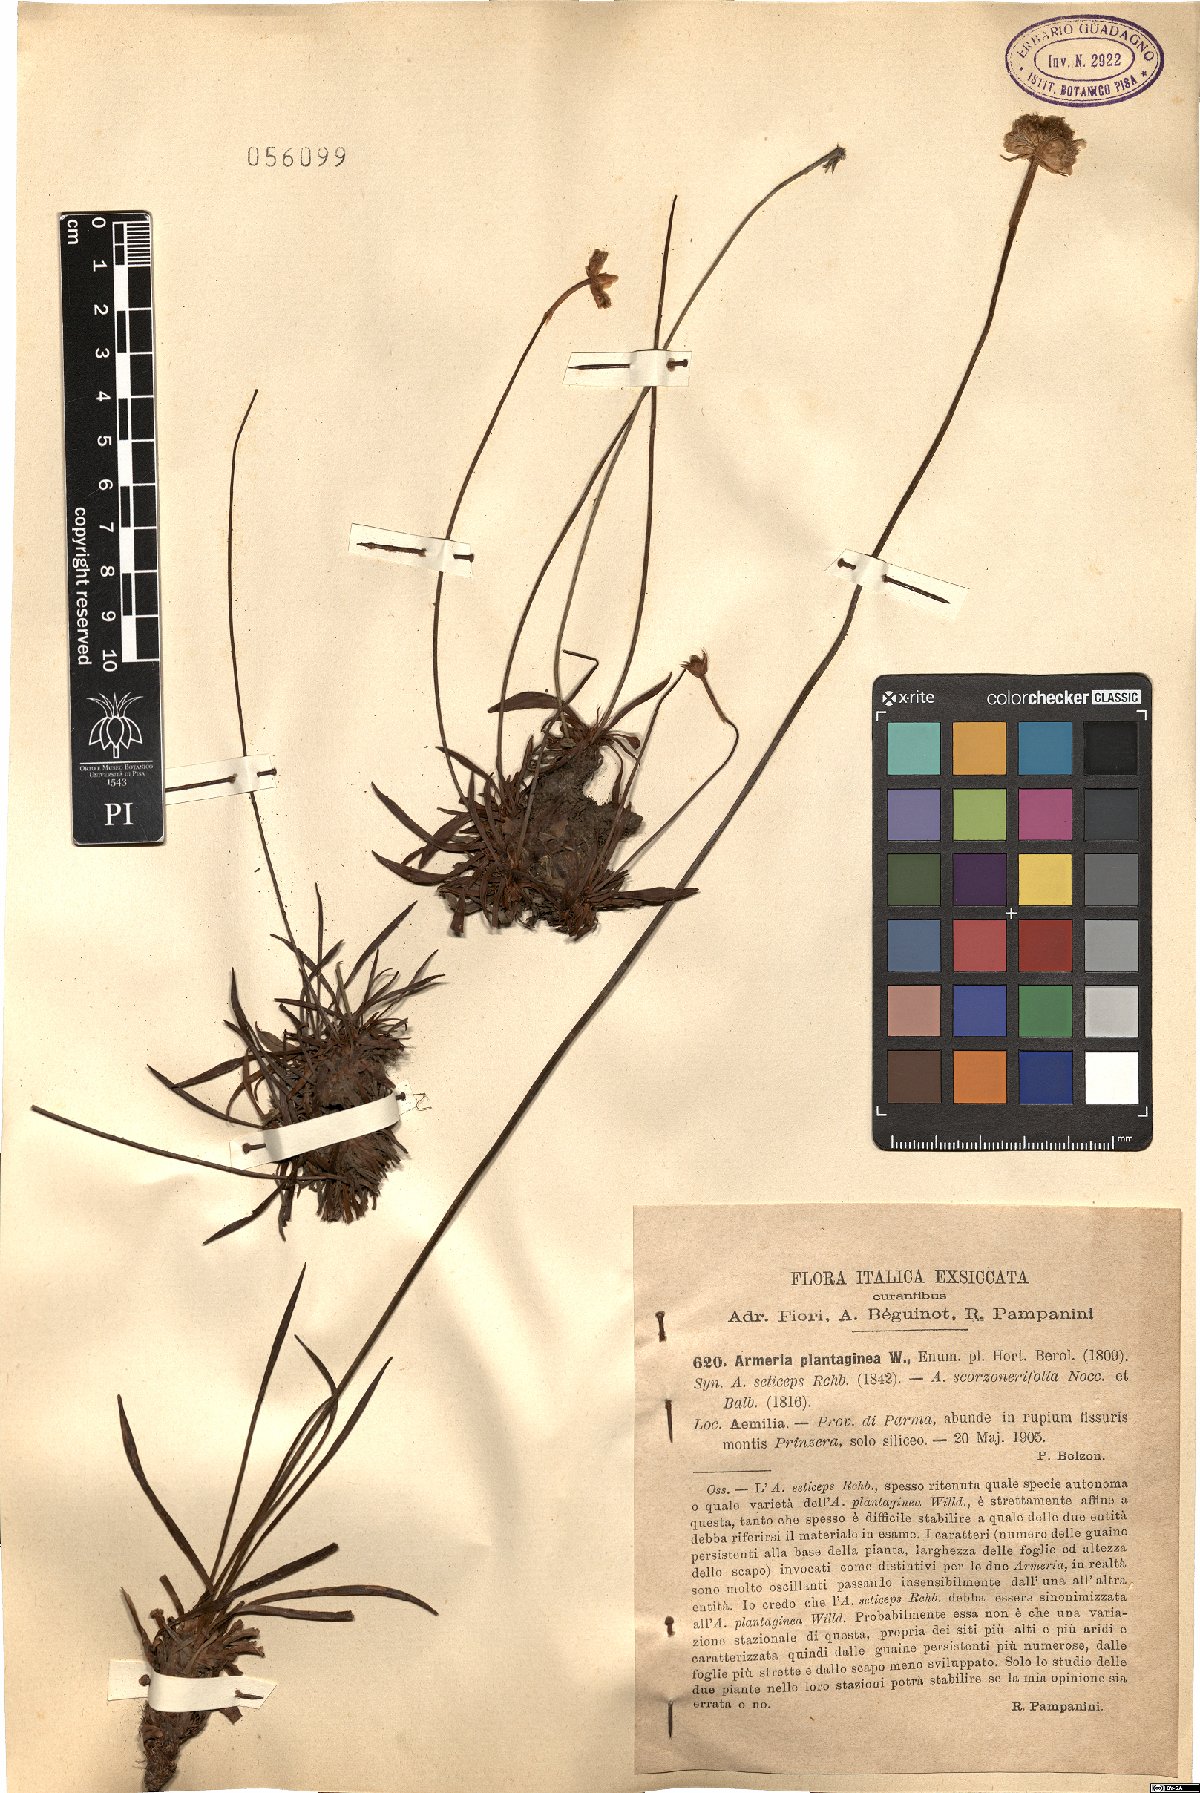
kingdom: Plantae
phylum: Tracheophyta
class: Magnoliopsida
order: Caryophyllales
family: Plumbaginaceae
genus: Armeria
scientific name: Armeria arenaria
